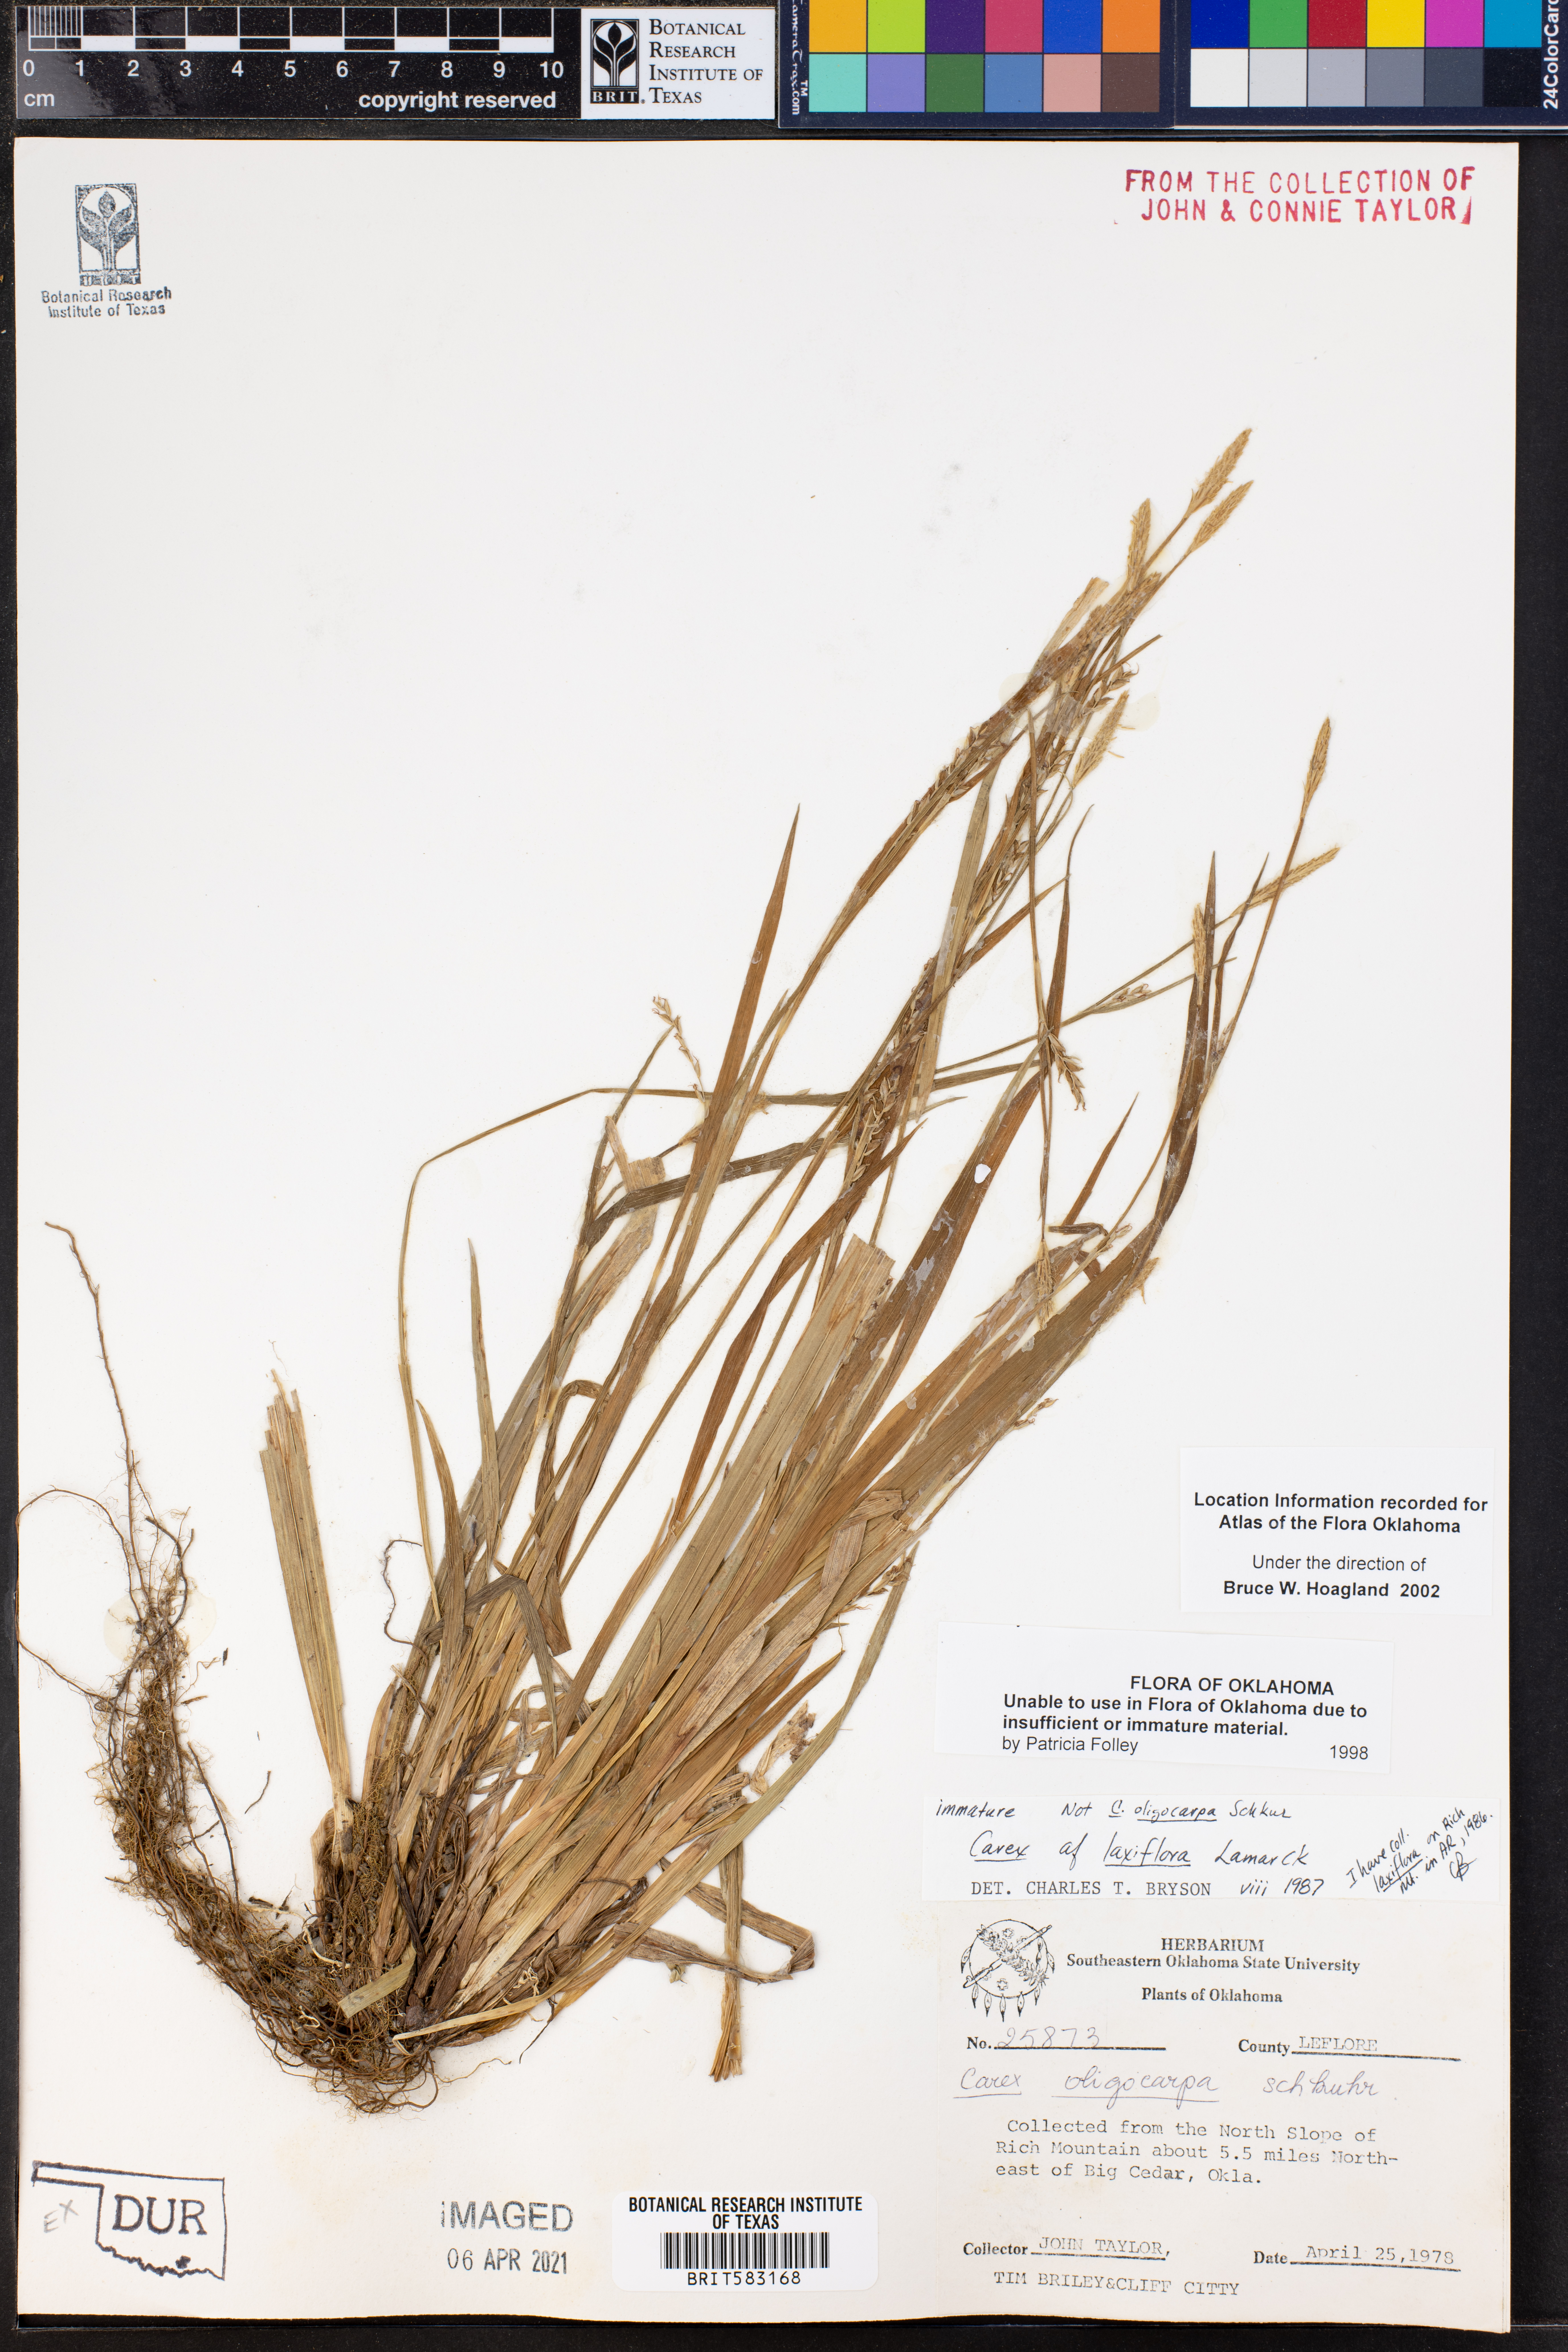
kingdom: Plantae
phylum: Tracheophyta
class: Liliopsida
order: Poales
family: Cyperaceae
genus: Carex
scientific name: Carex laxiflora
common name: Beech wood sedge
